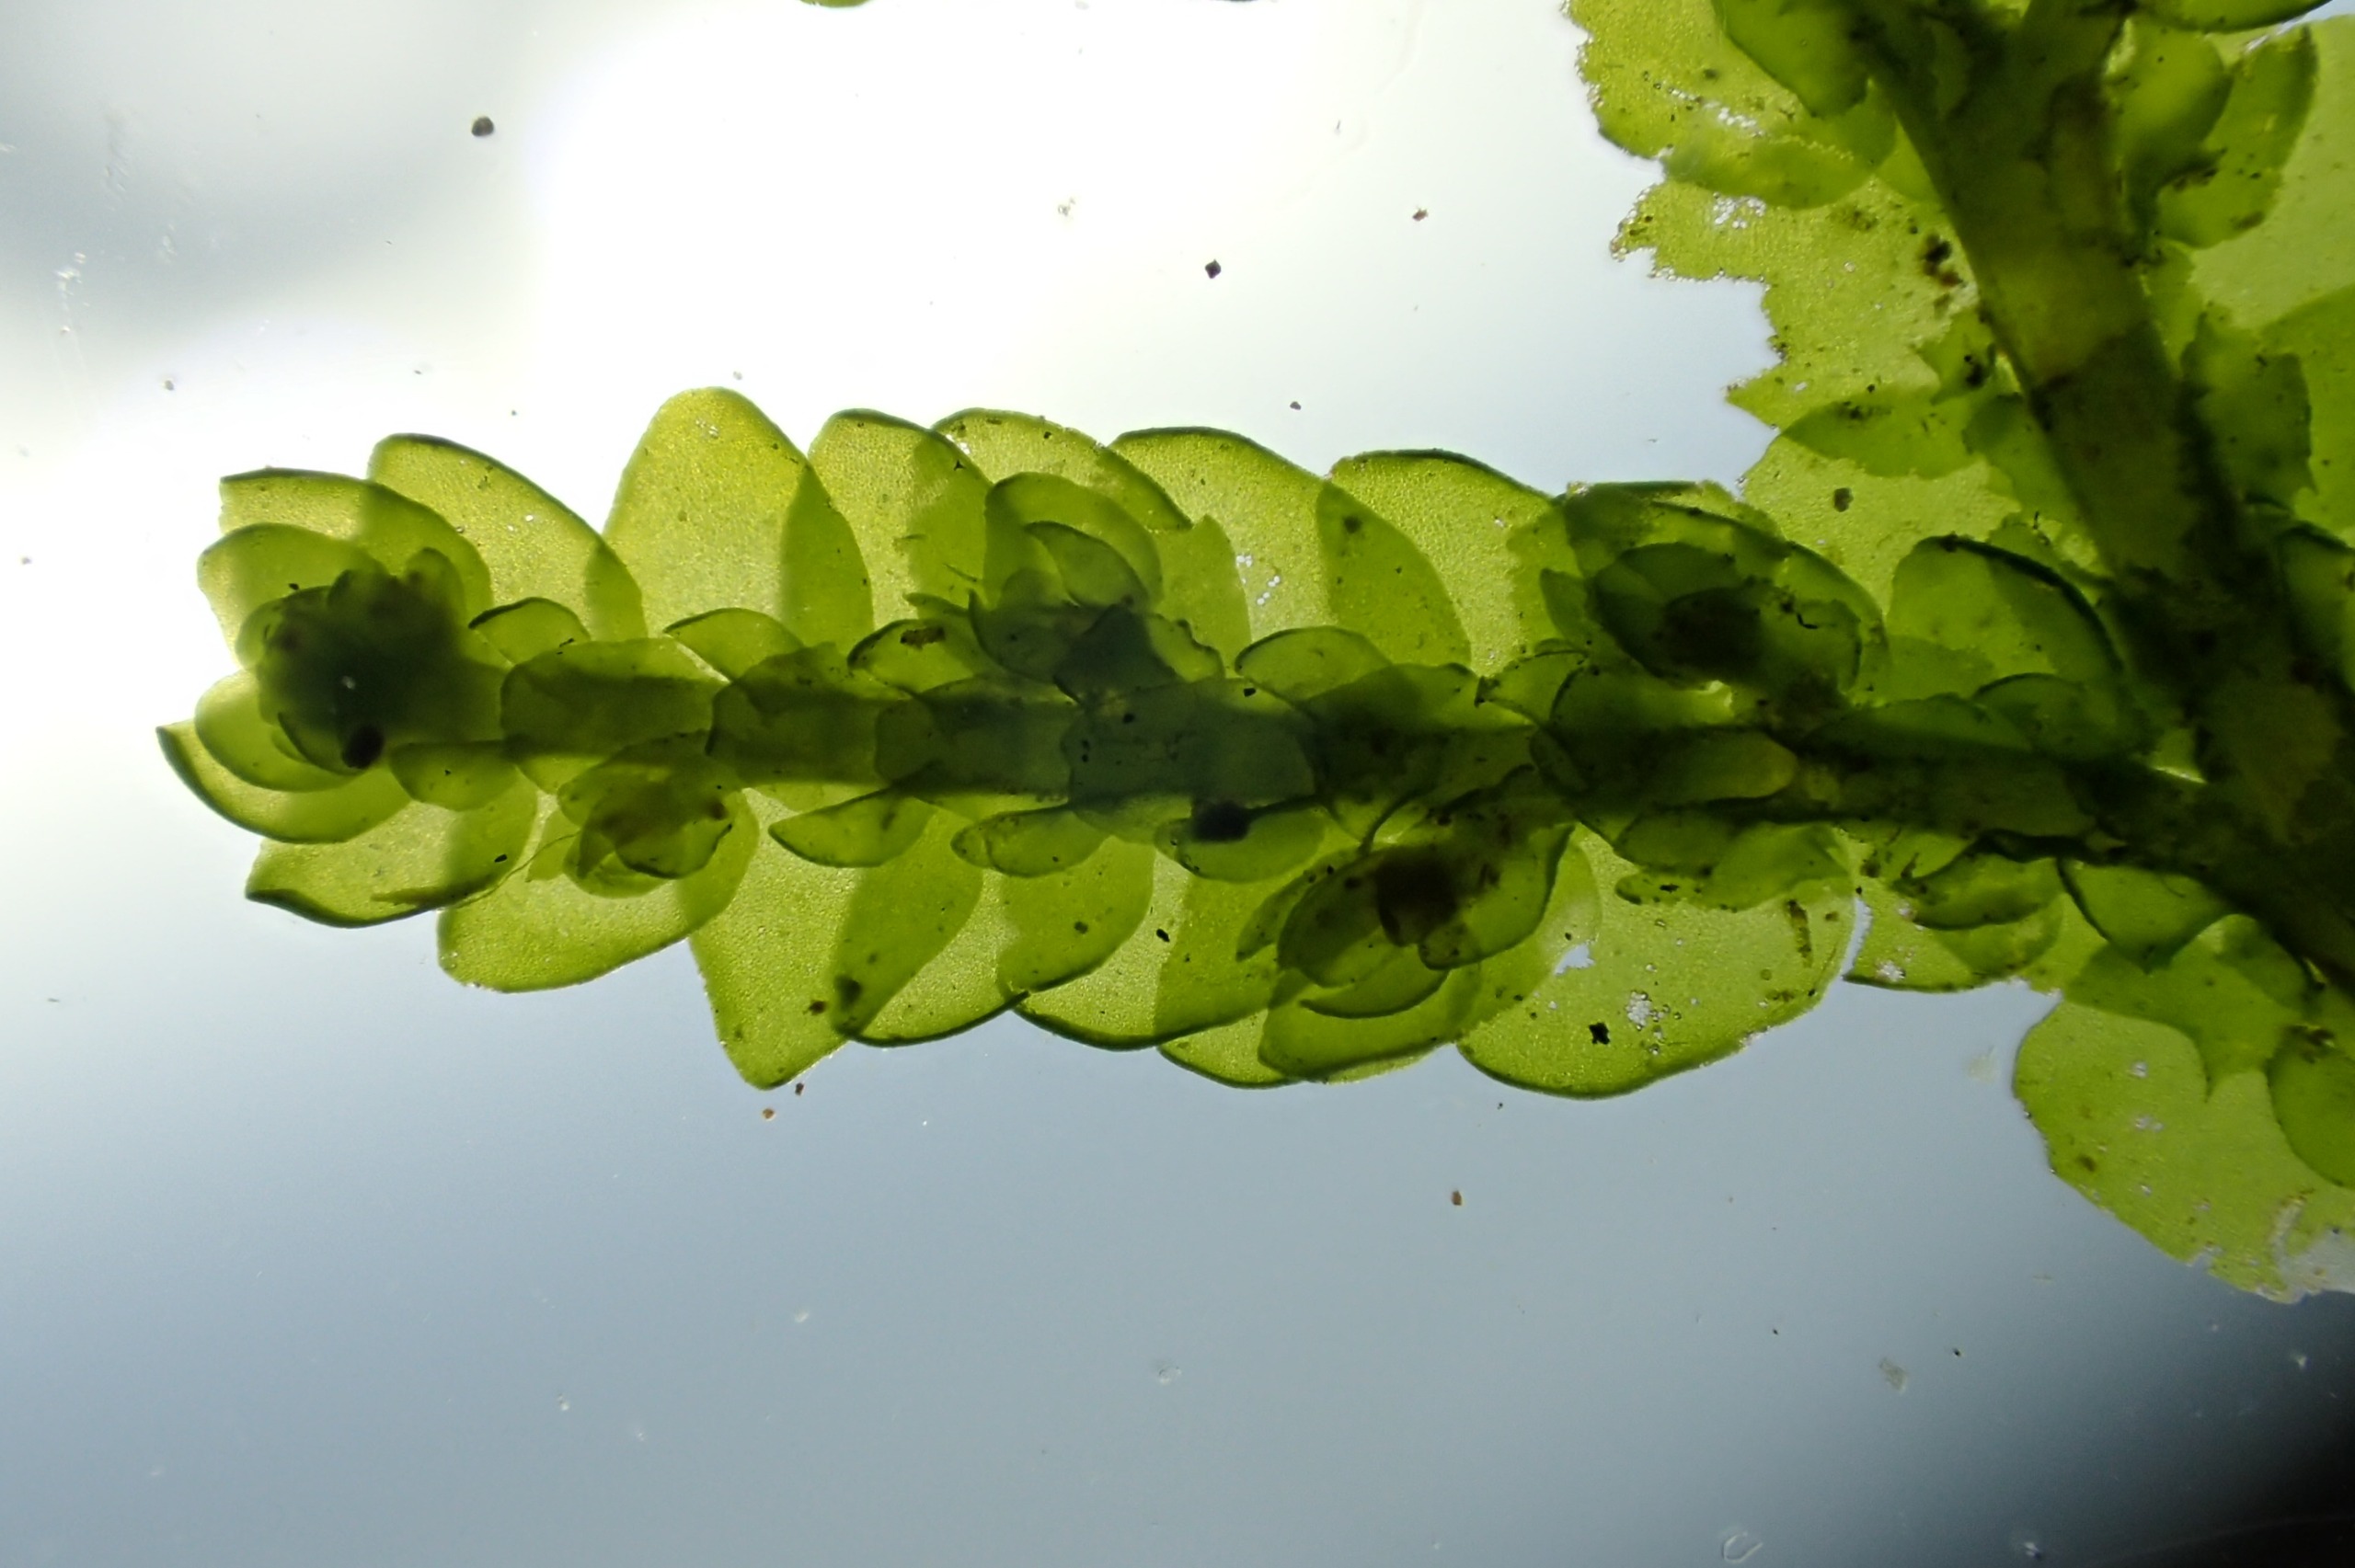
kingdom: Plantae
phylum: Marchantiophyta
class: Jungermanniopsida
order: Porellales
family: Porellaceae
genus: Porella
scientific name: Porella platyphylla
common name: Almindelig skælryg
